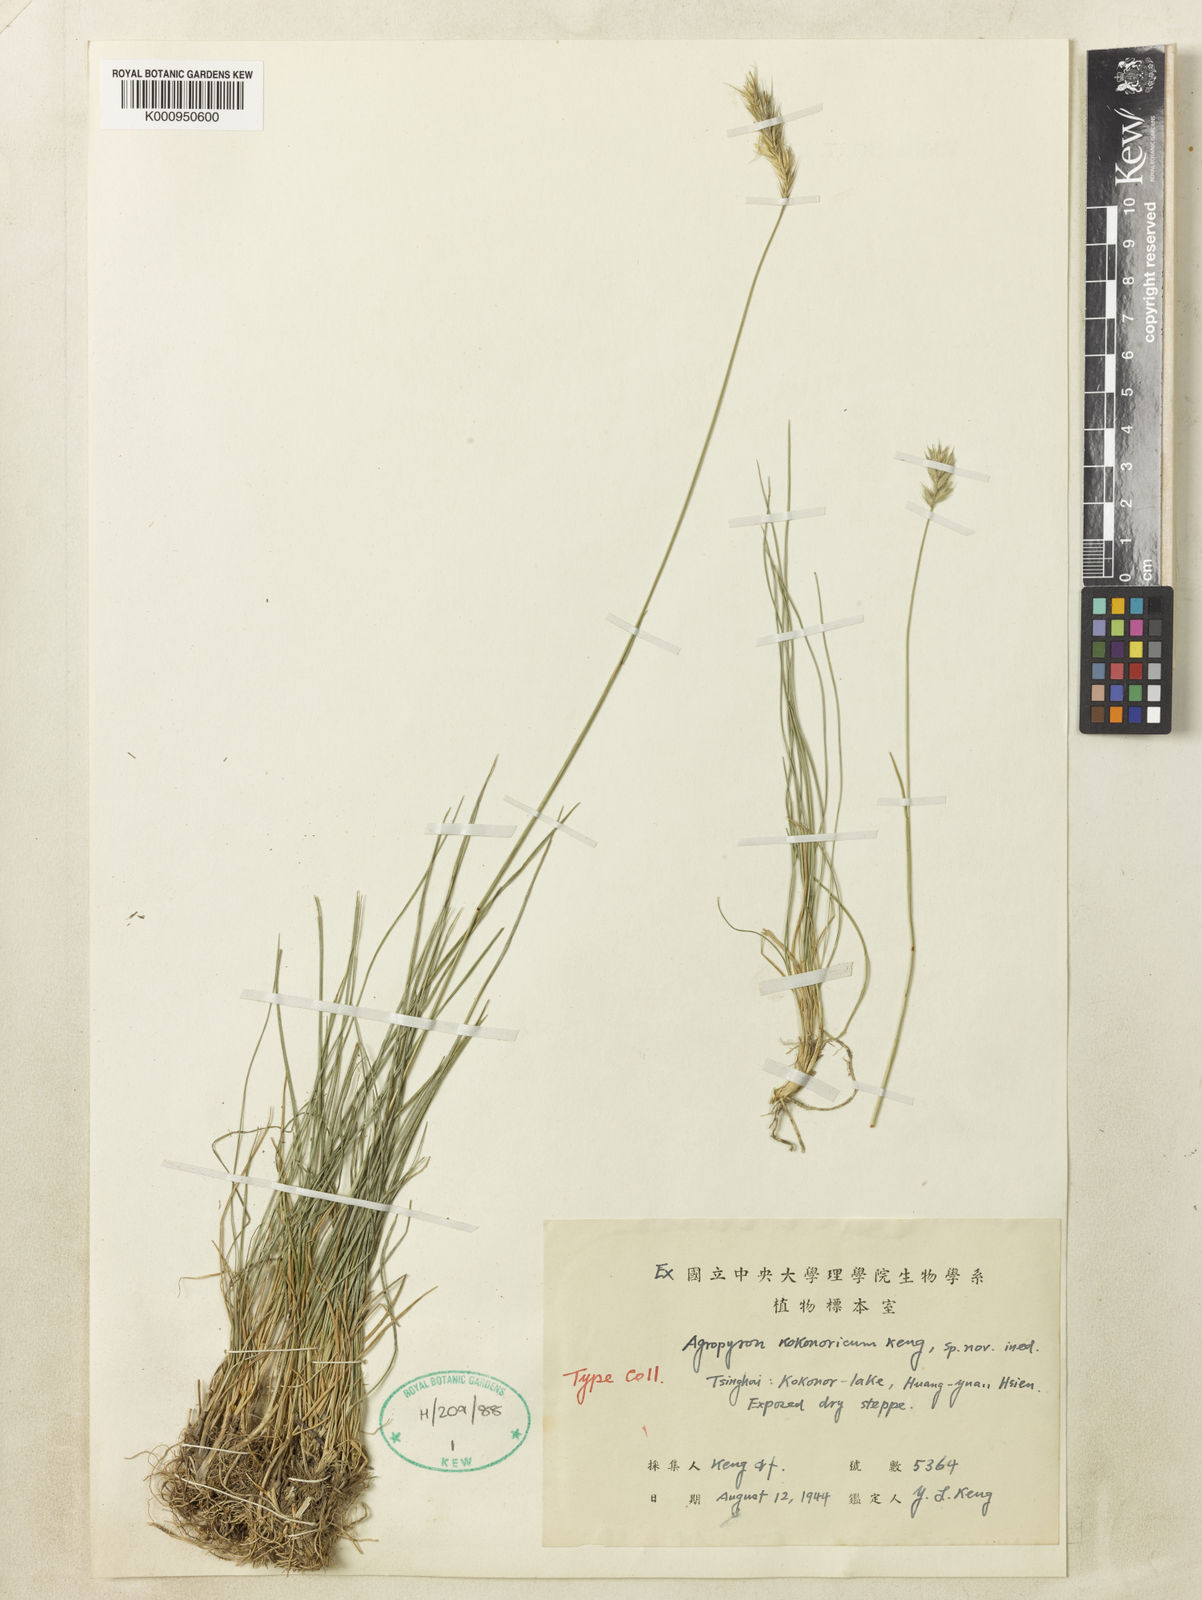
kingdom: Plantae
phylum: Tracheophyta
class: Liliopsida
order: Poales
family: Poaceae
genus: Agropyron
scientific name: Agropyron
